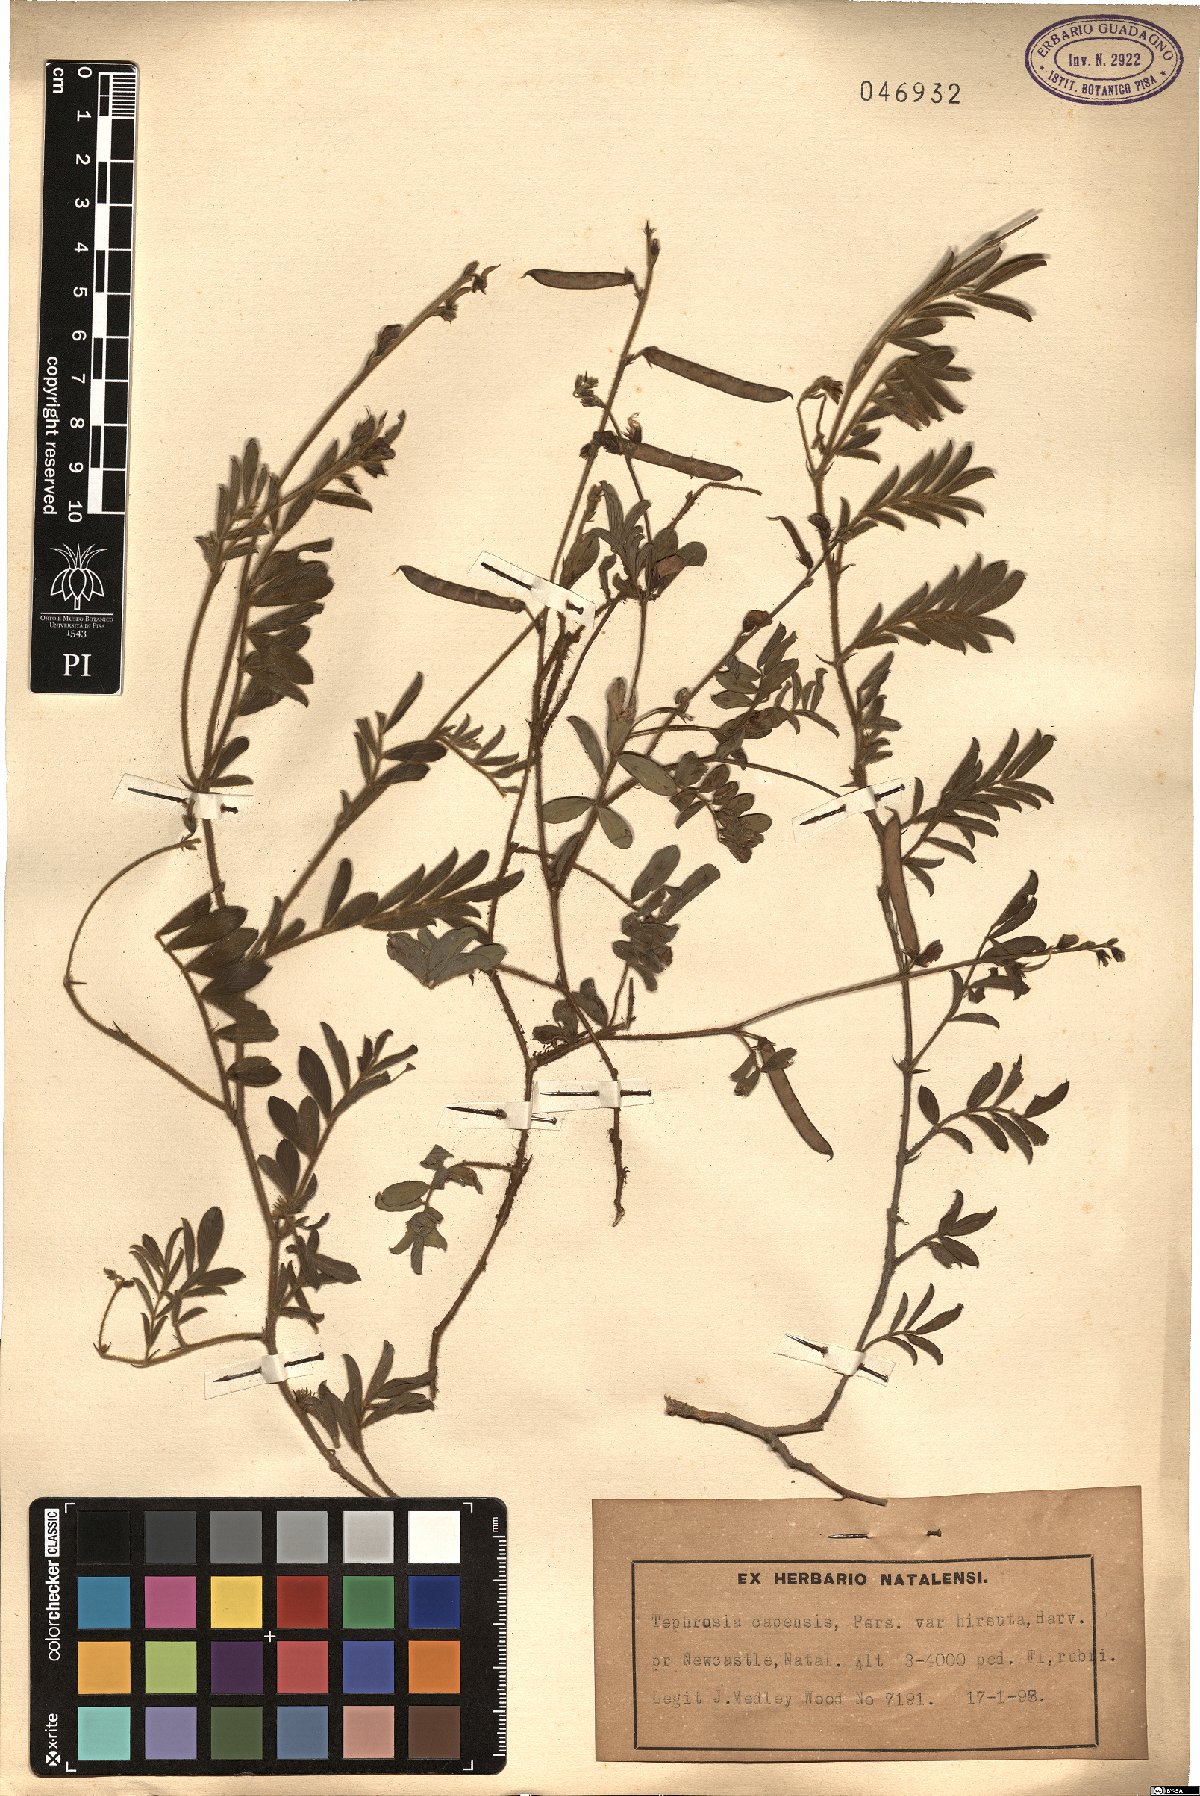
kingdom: Plantae
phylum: Tracheophyta
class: Magnoliopsida
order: Fabales
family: Fabaceae
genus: Tephrosia
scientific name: Tephrosia capensis
